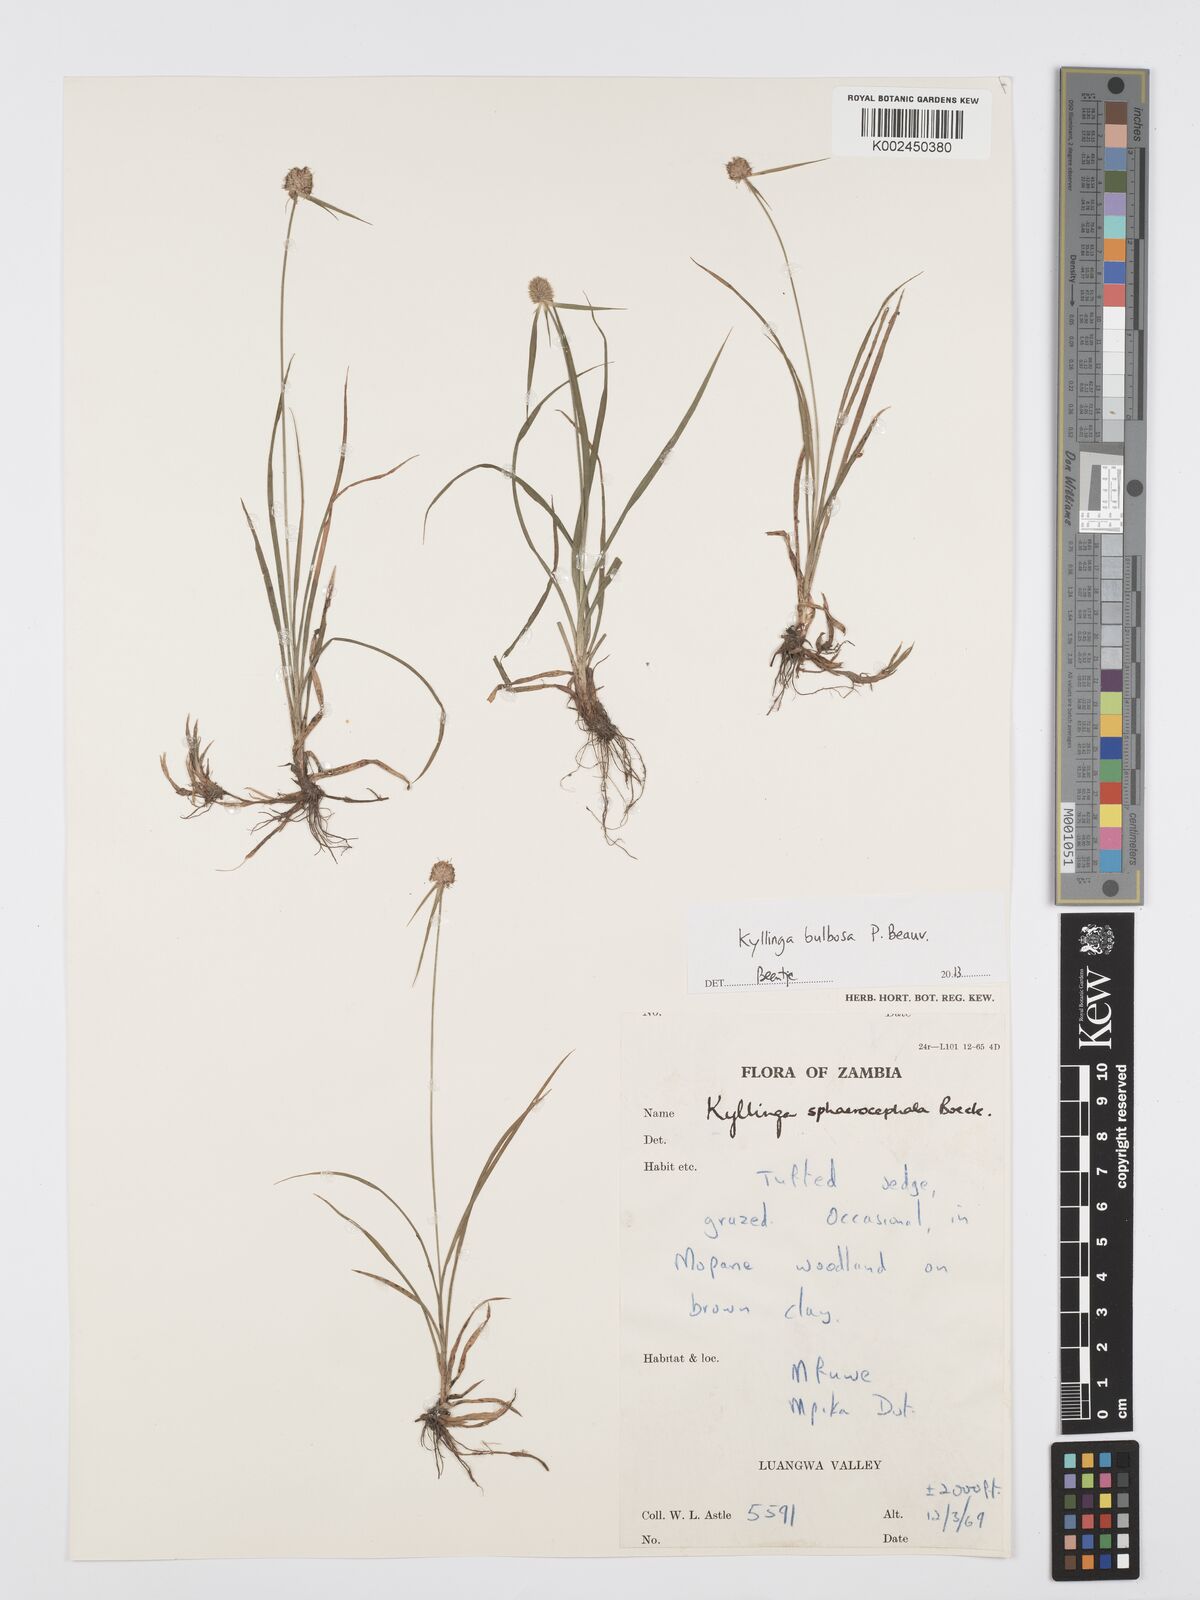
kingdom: Plantae
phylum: Tracheophyta
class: Liliopsida
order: Poales
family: Cyperaceae
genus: Cyperus
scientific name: Cyperus
